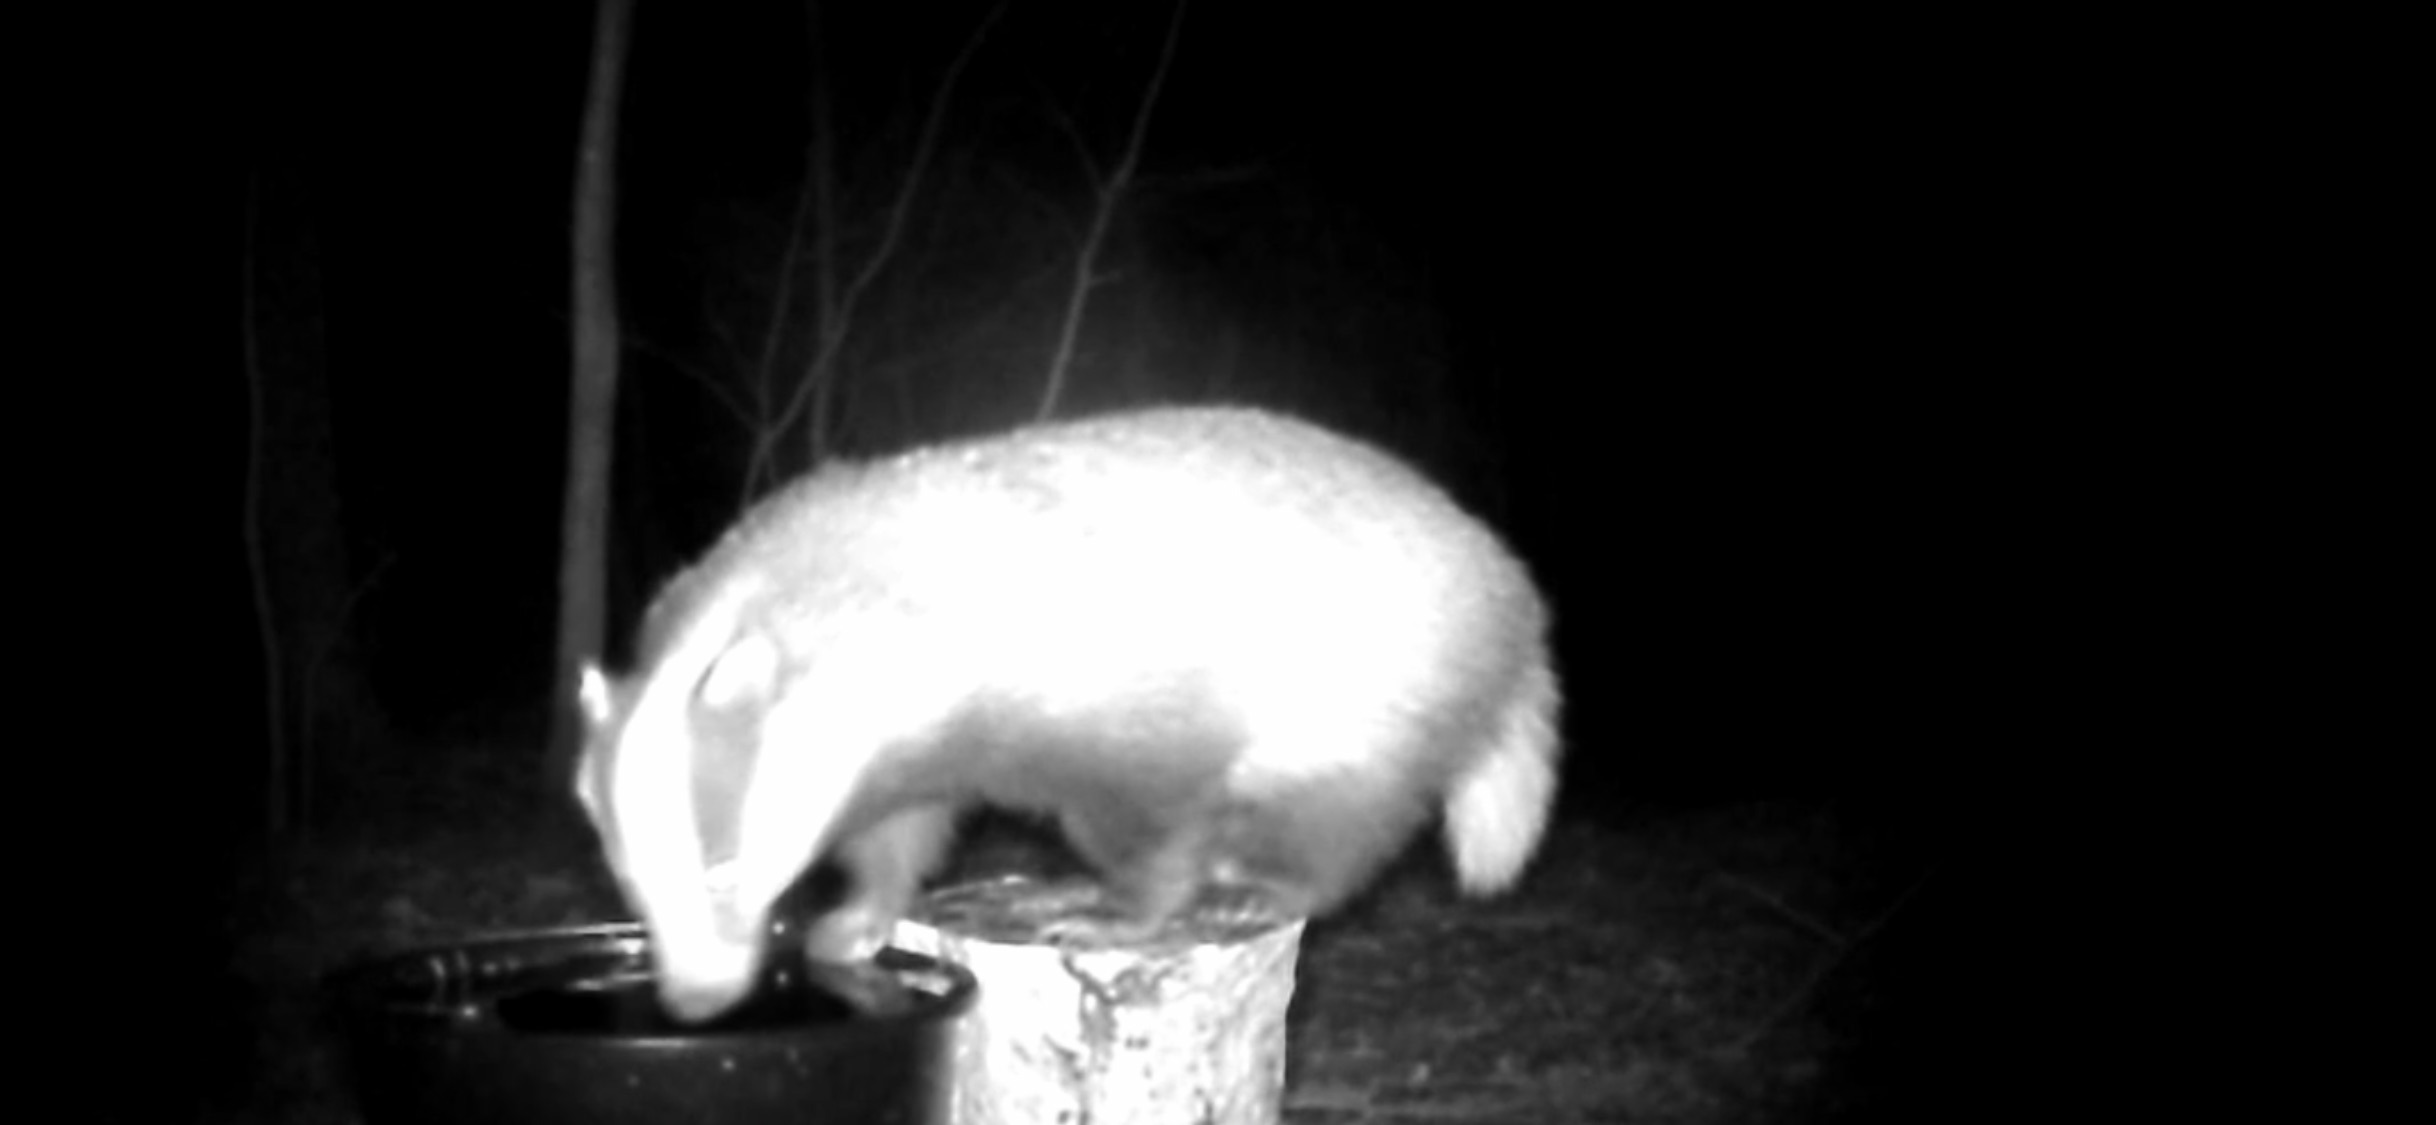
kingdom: Animalia
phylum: Chordata
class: Mammalia
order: Carnivora
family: Mustelidae
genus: Meles
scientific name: Meles meles
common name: Grævling
